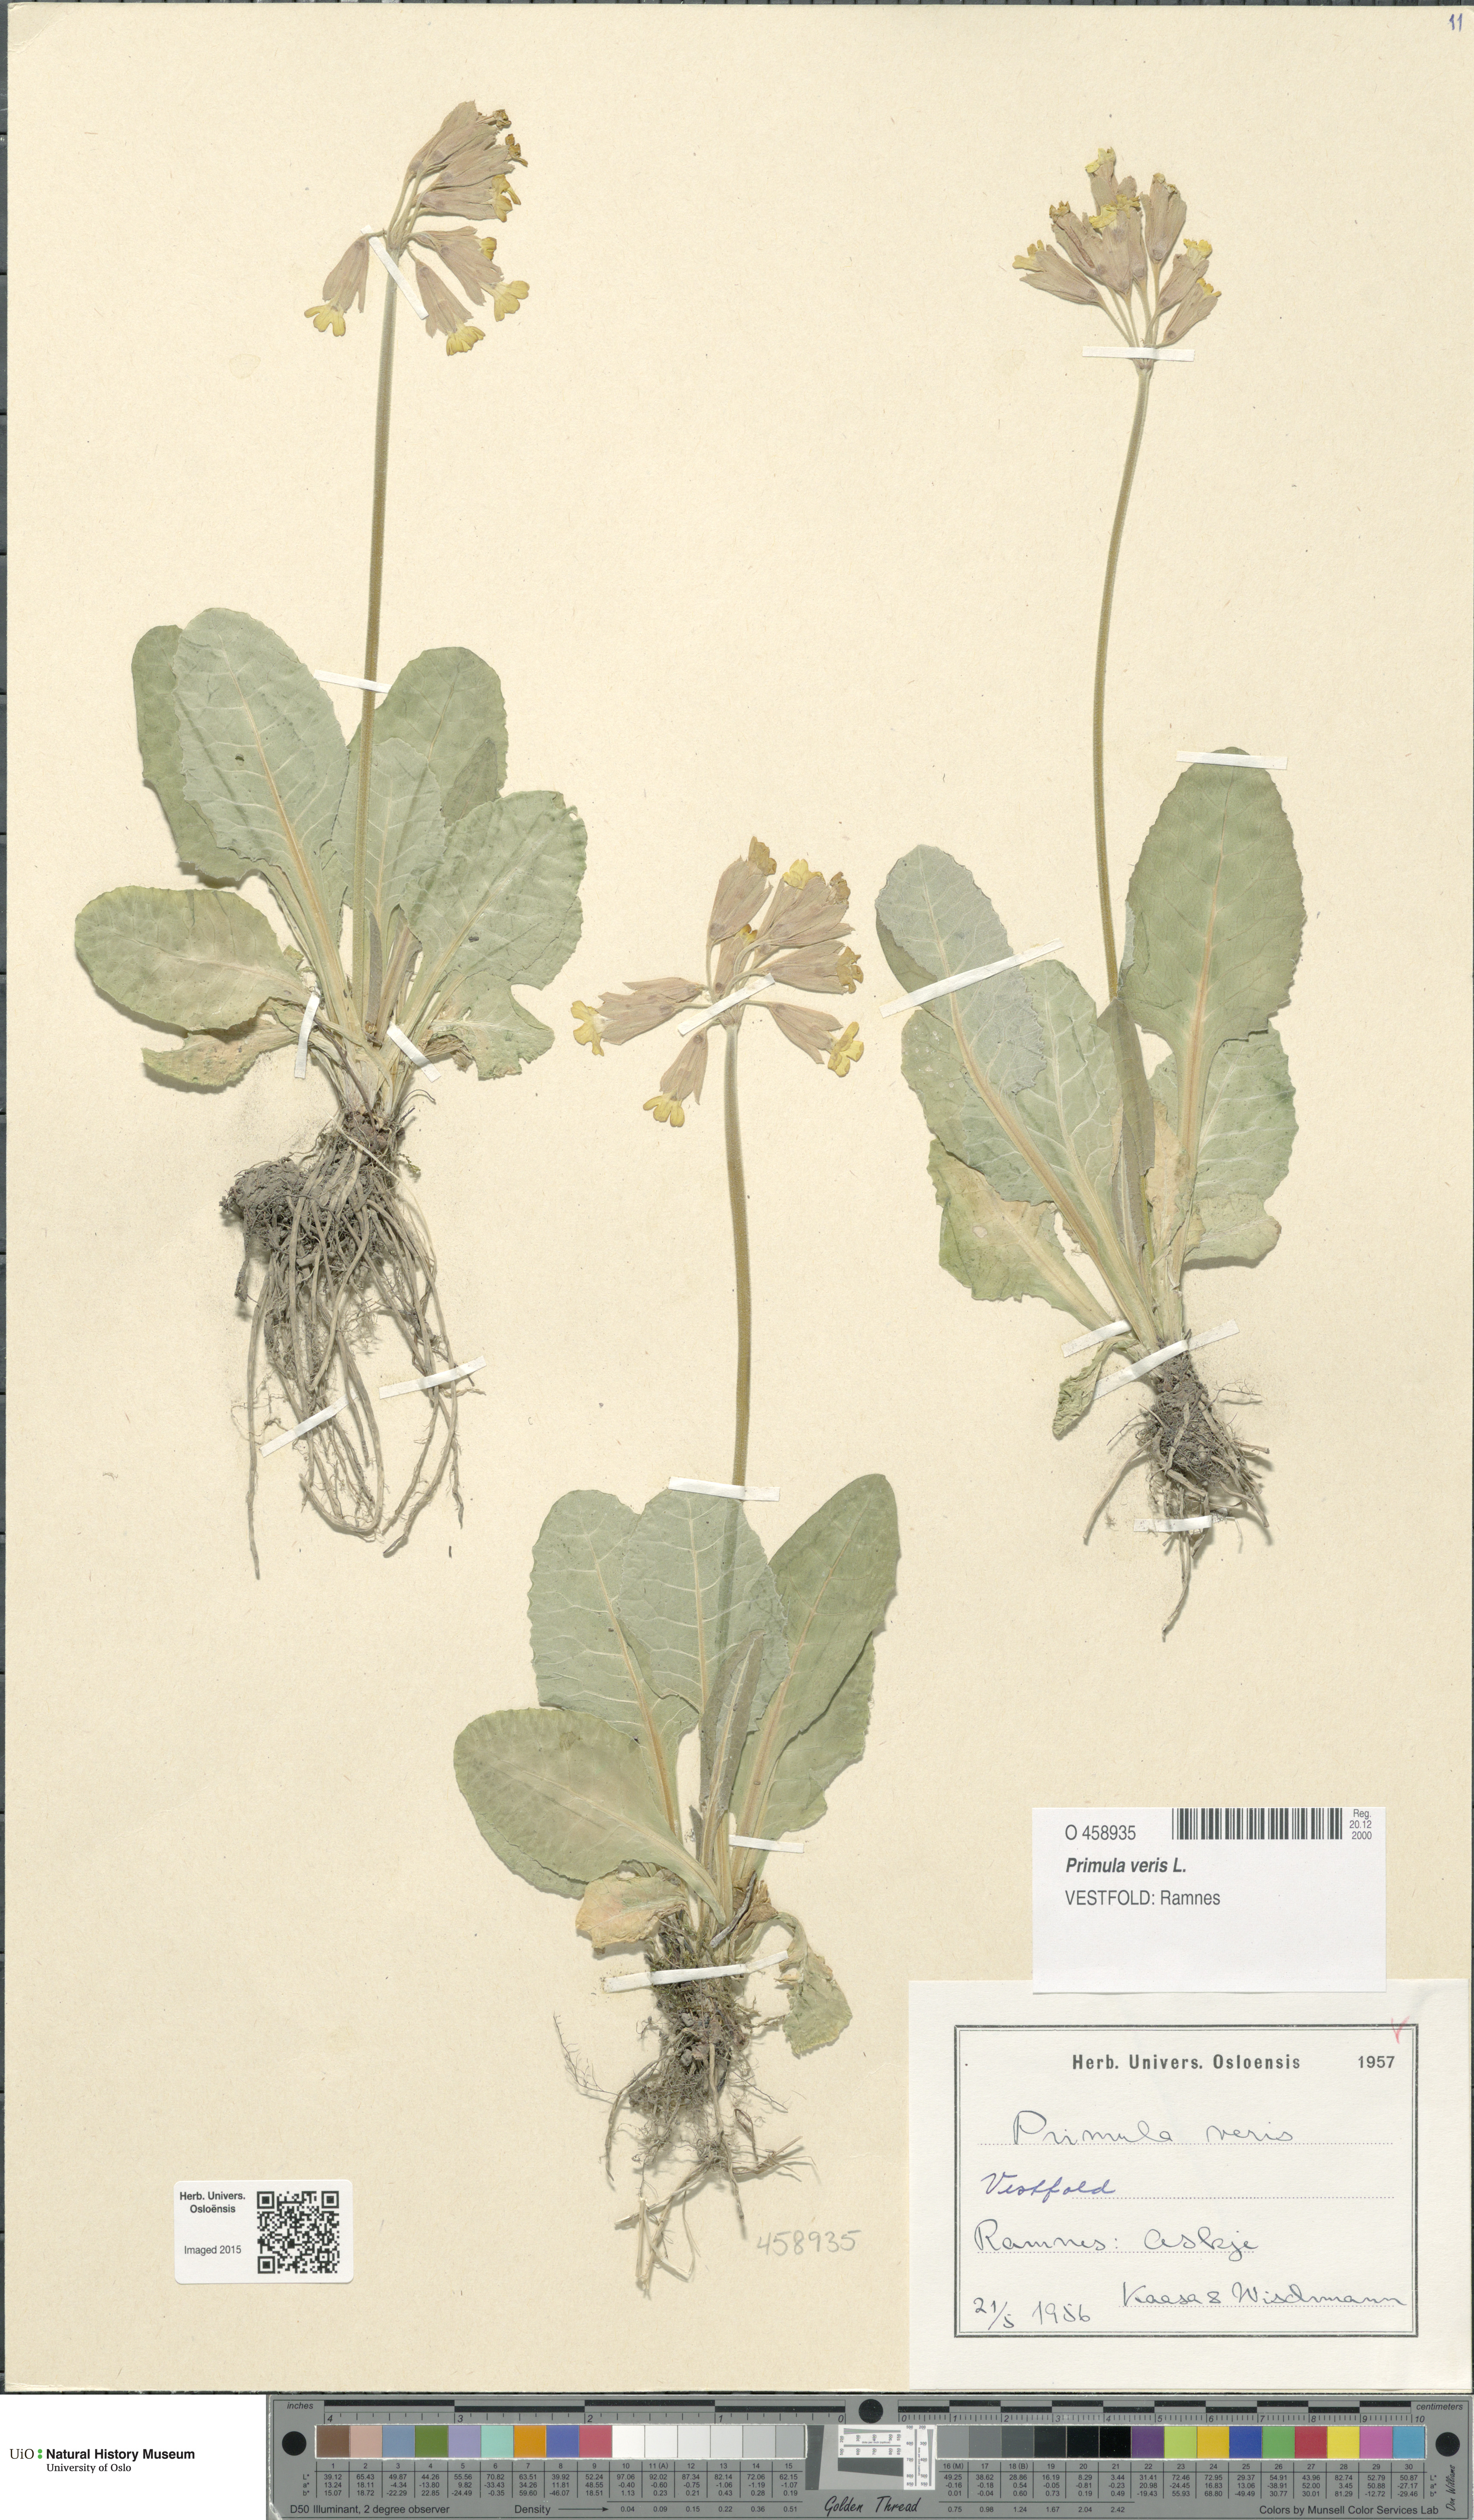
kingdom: Plantae
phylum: Tracheophyta
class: Magnoliopsida
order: Ericales
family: Primulaceae
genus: Primula
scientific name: Primula veris
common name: Cowslip
